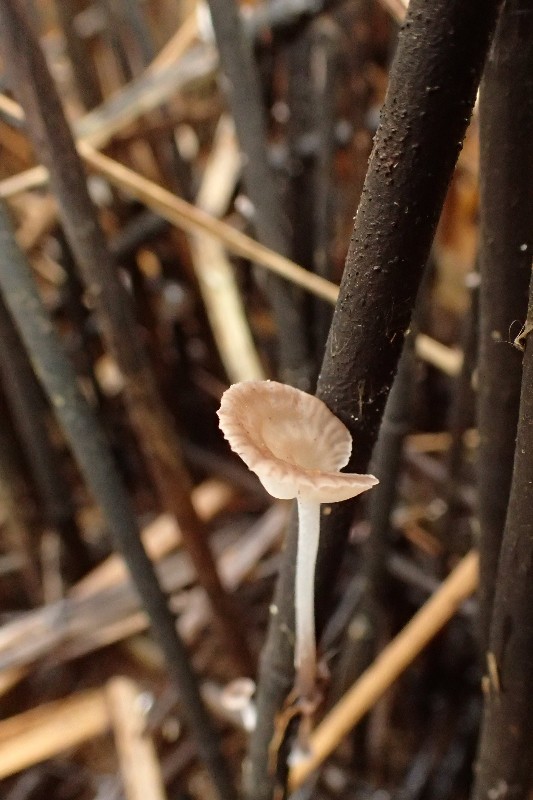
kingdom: Fungi
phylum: Basidiomycota
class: Agaricomycetes
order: Agaricales
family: Mycenaceae
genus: Mycena
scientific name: Mycena belliae
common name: tagrørs-huesvamp
